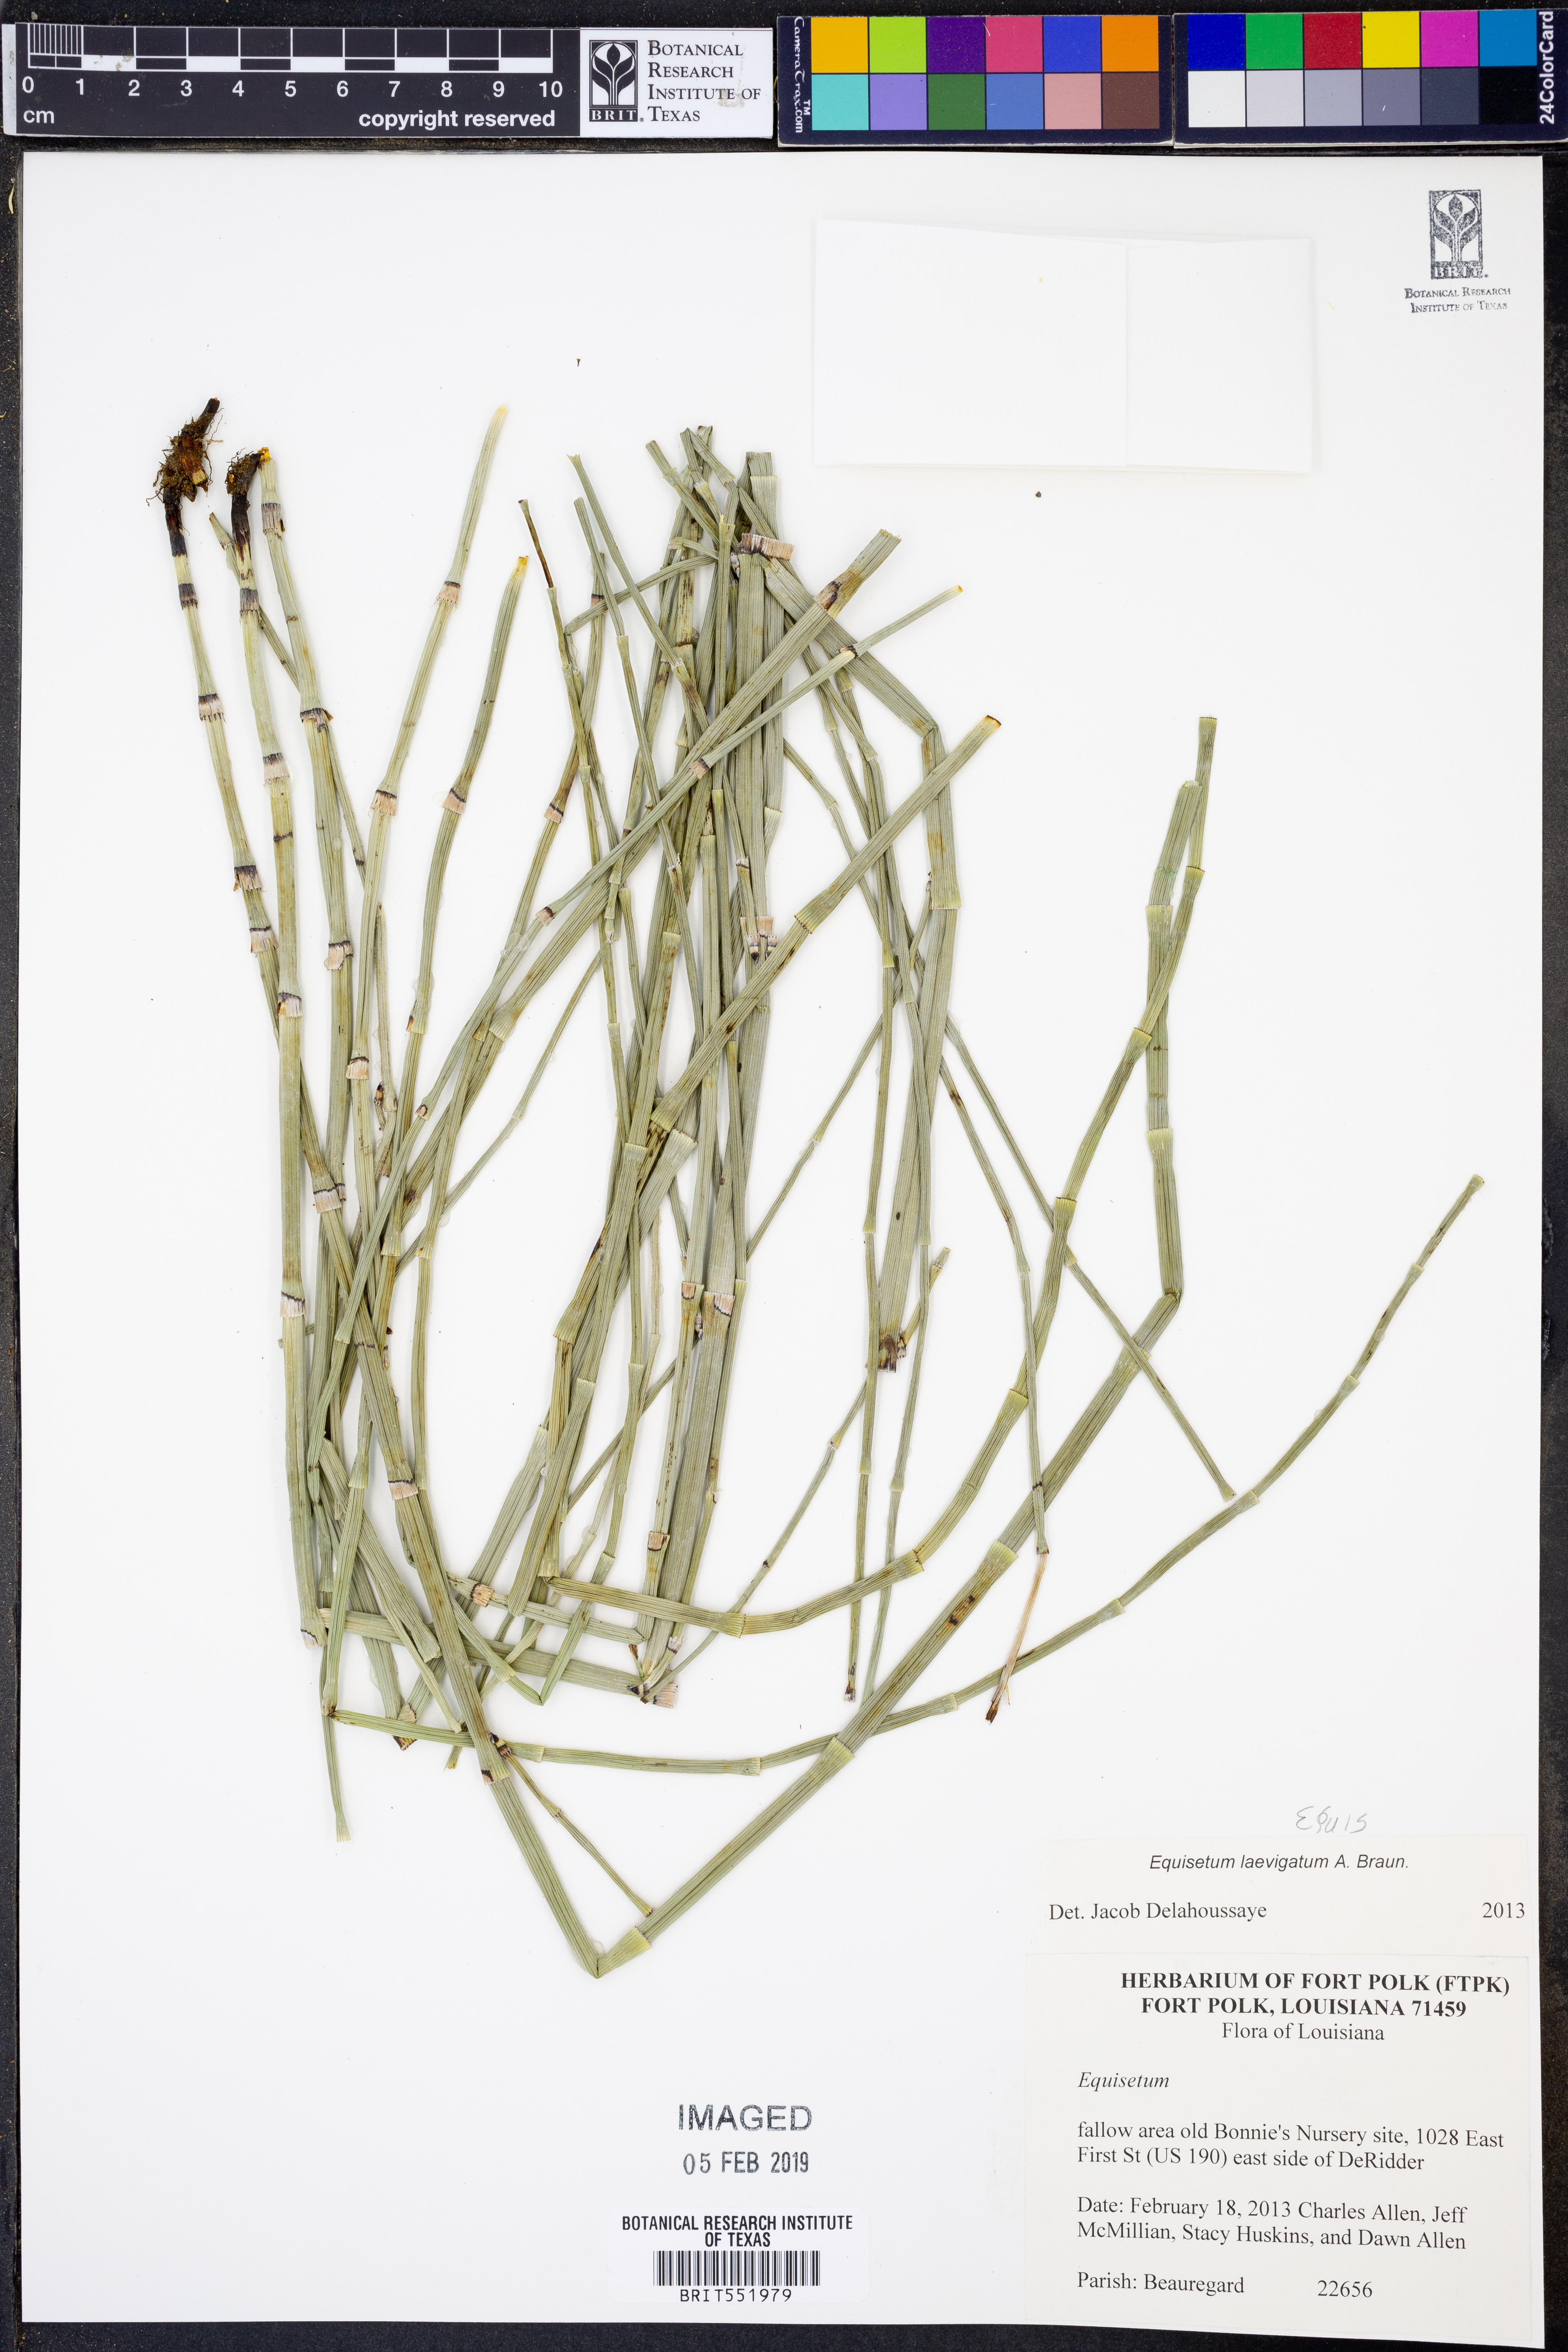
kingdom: Plantae
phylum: Tracheophyta
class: Polypodiopsida
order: Equisetales
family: Equisetaceae
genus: Equisetum
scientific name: Equisetum laevigatum
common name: Smooth scouring-rush
